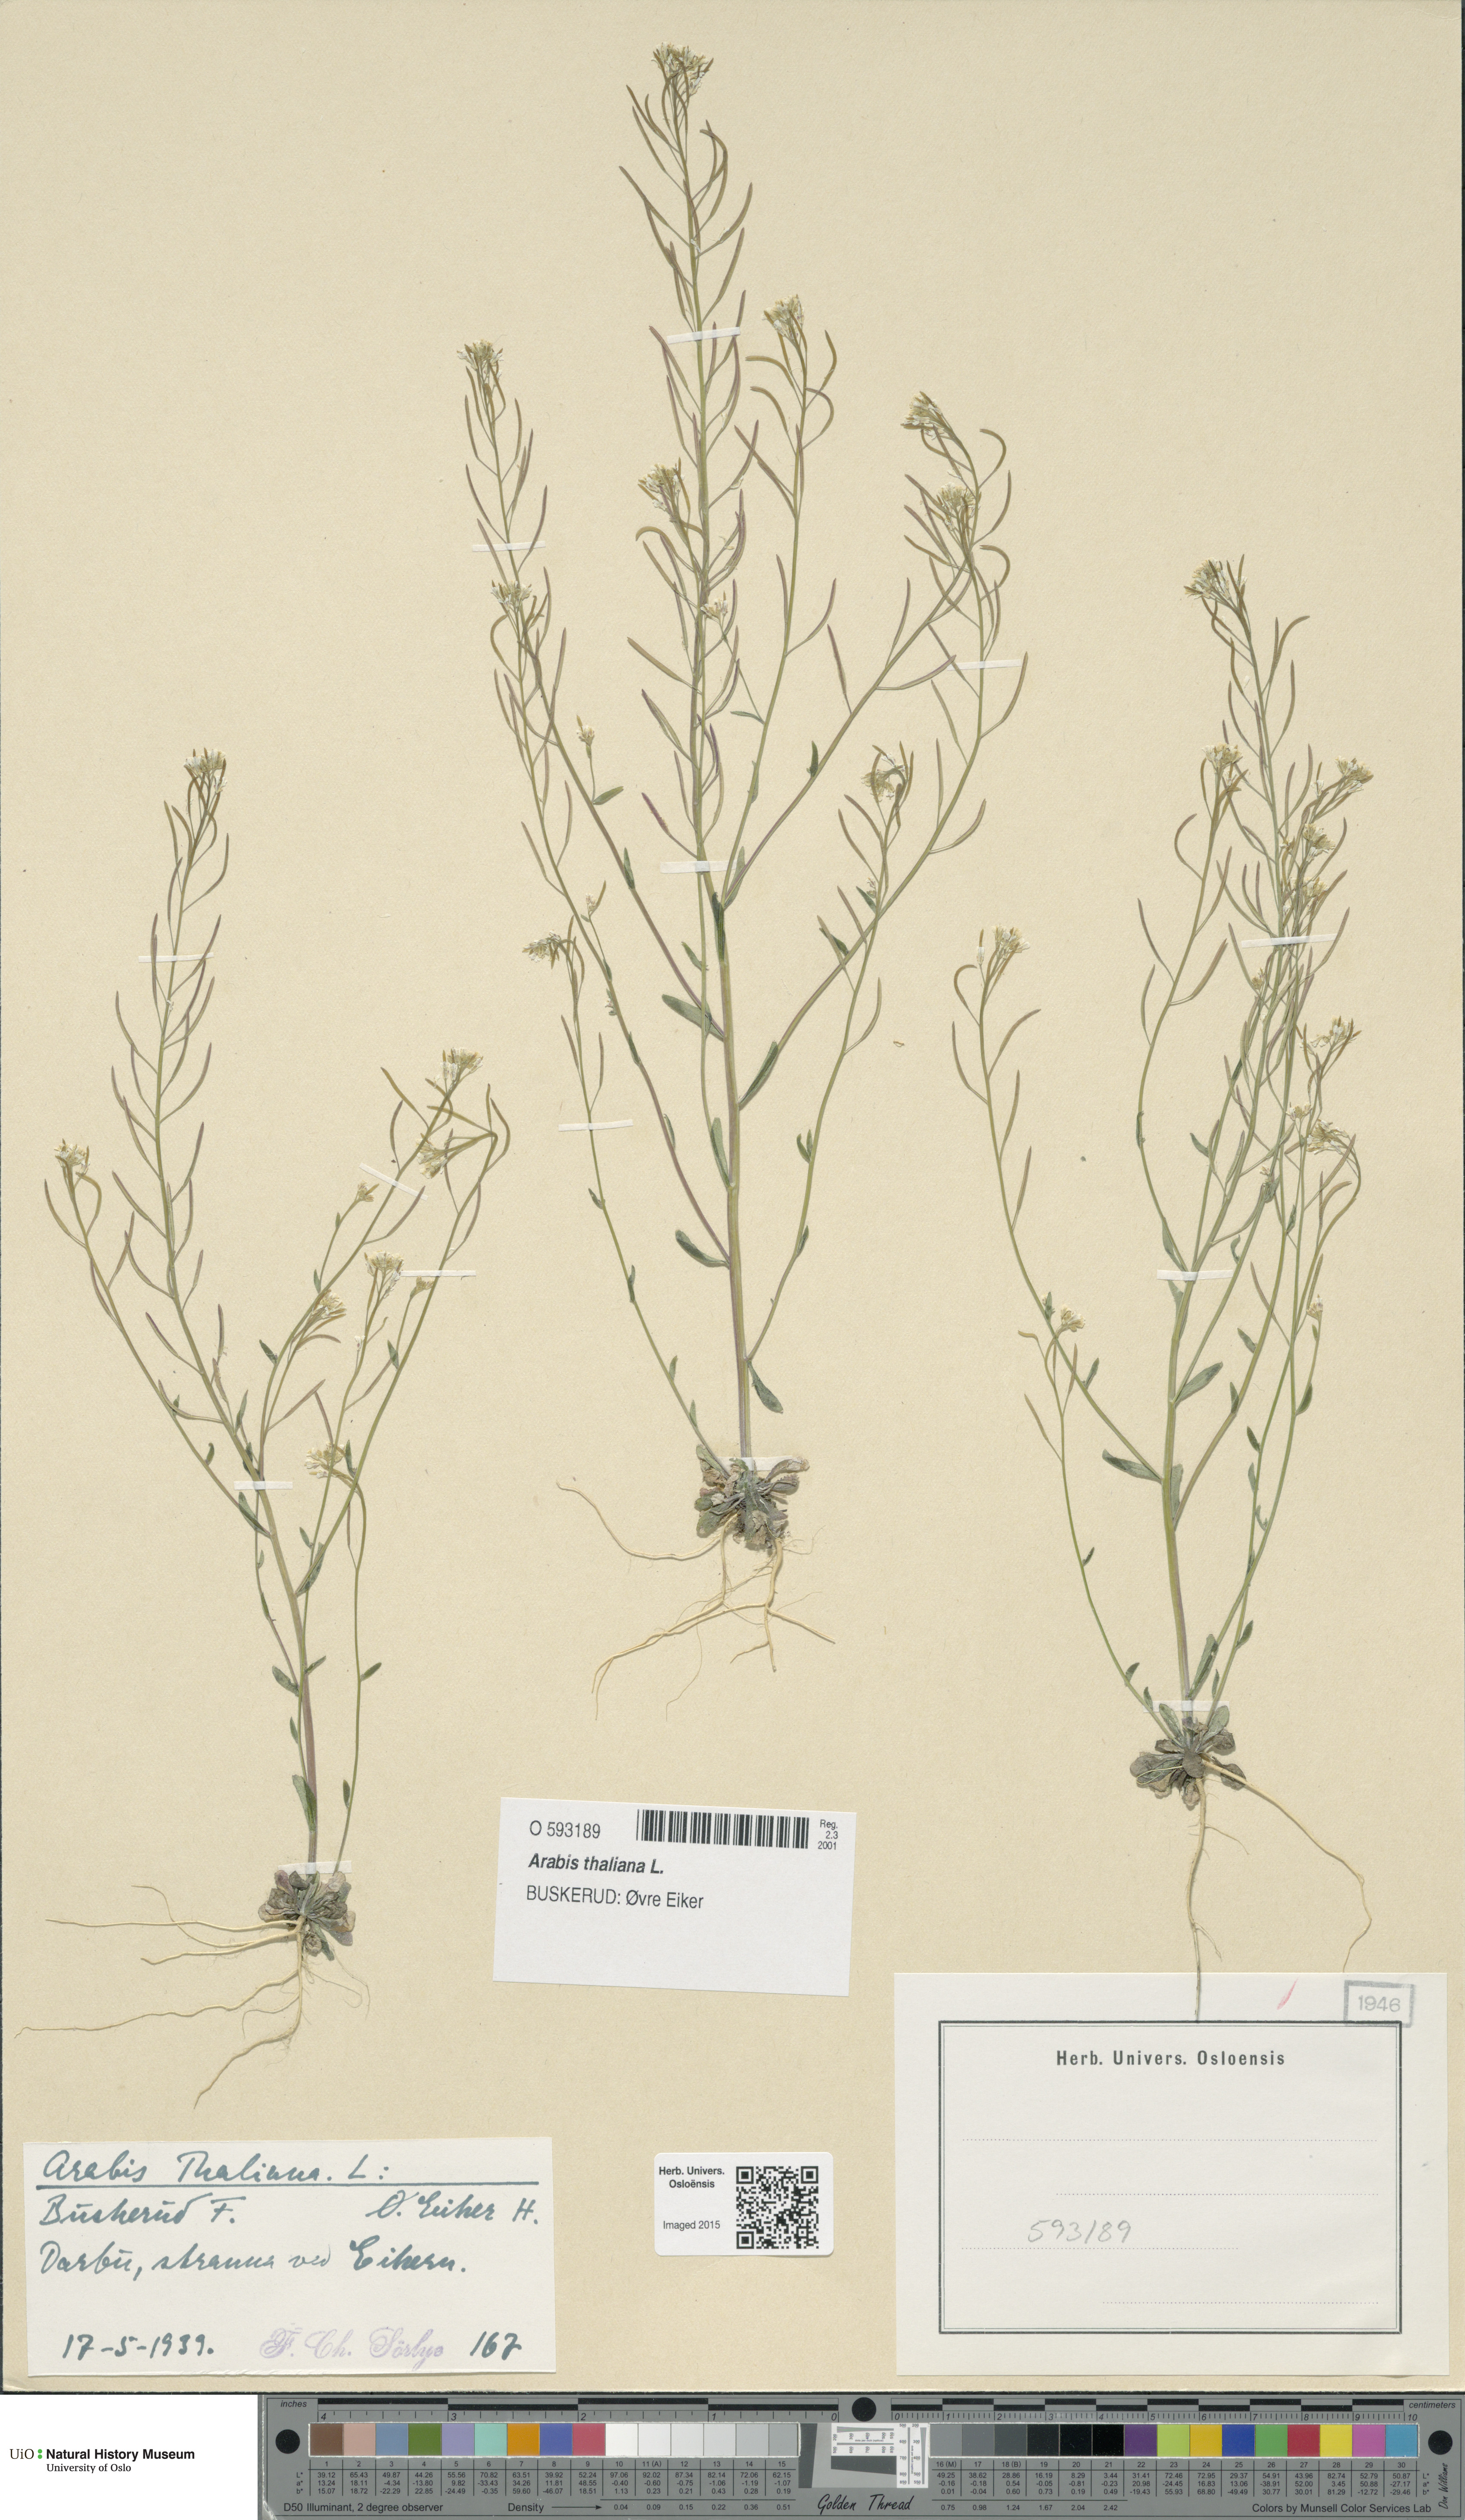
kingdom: Plantae
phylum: Tracheophyta
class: Magnoliopsida
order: Brassicales
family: Brassicaceae
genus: Arabidopsis
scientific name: Arabidopsis thaliana
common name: Thale cress
